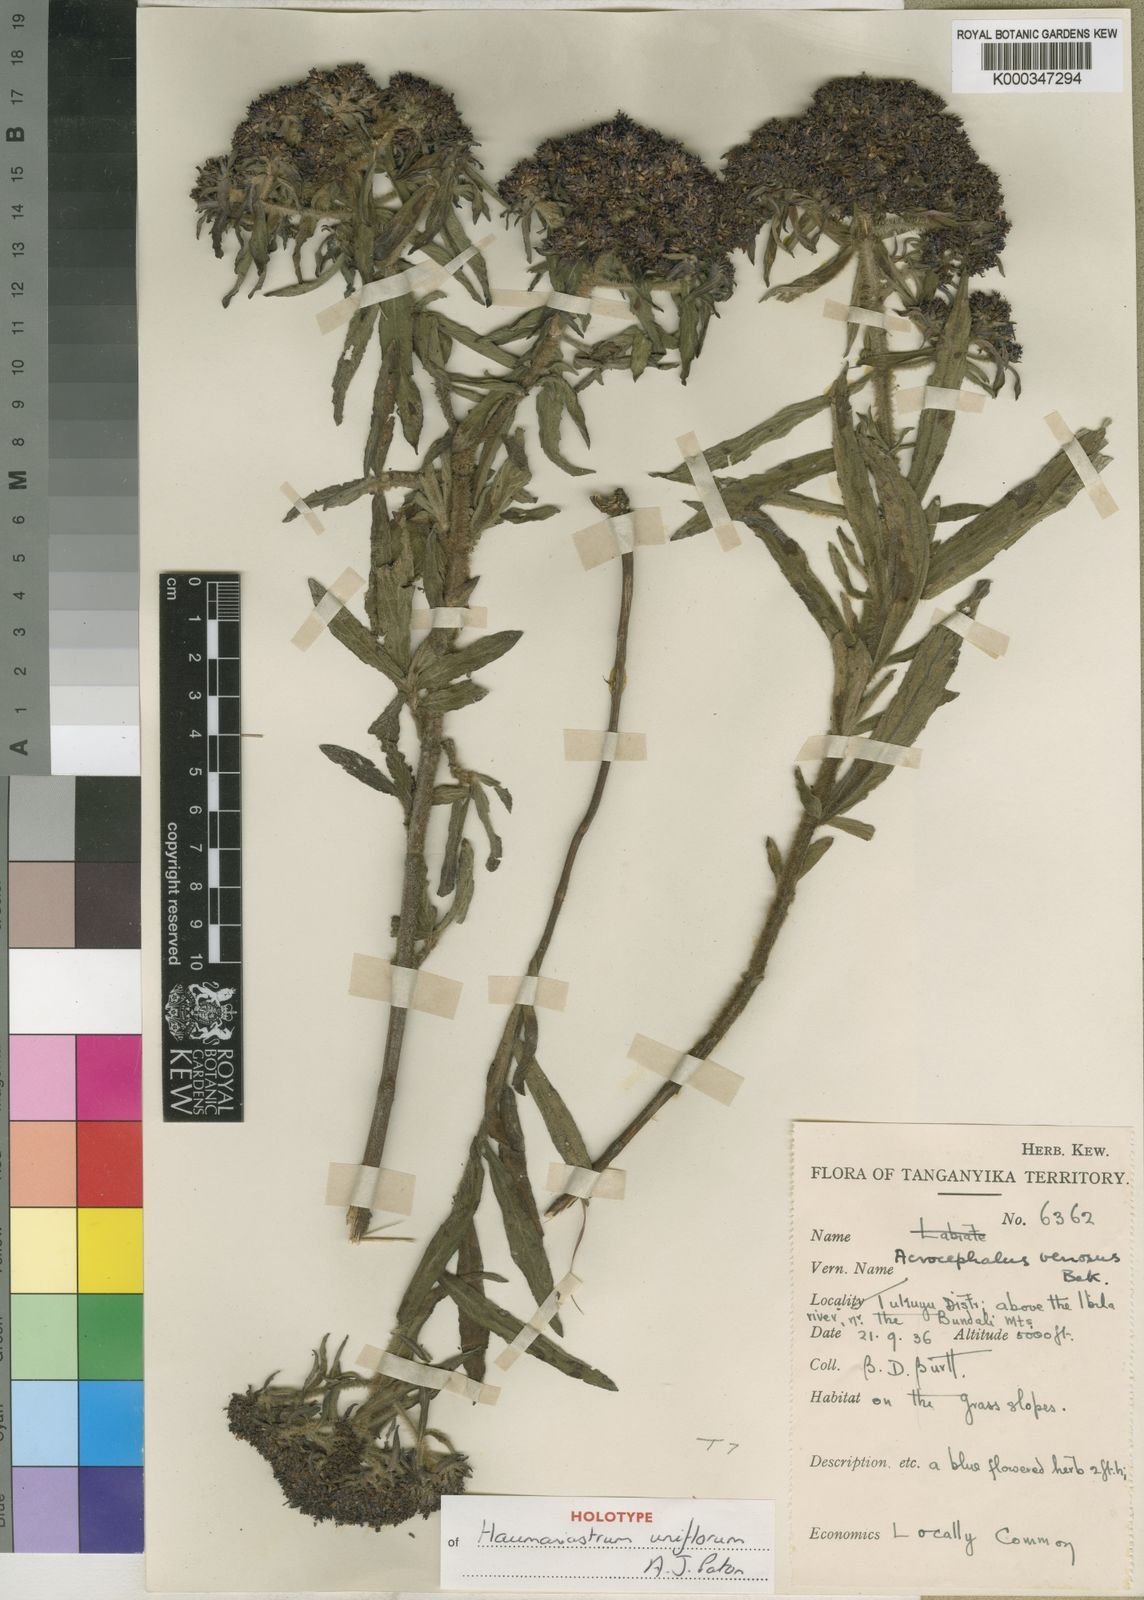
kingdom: Plantae
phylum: Tracheophyta
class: Magnoliopsida
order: Lamiales
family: Lamiaceae
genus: Haumaniastrum
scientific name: Haumaniastrum uniflorum
